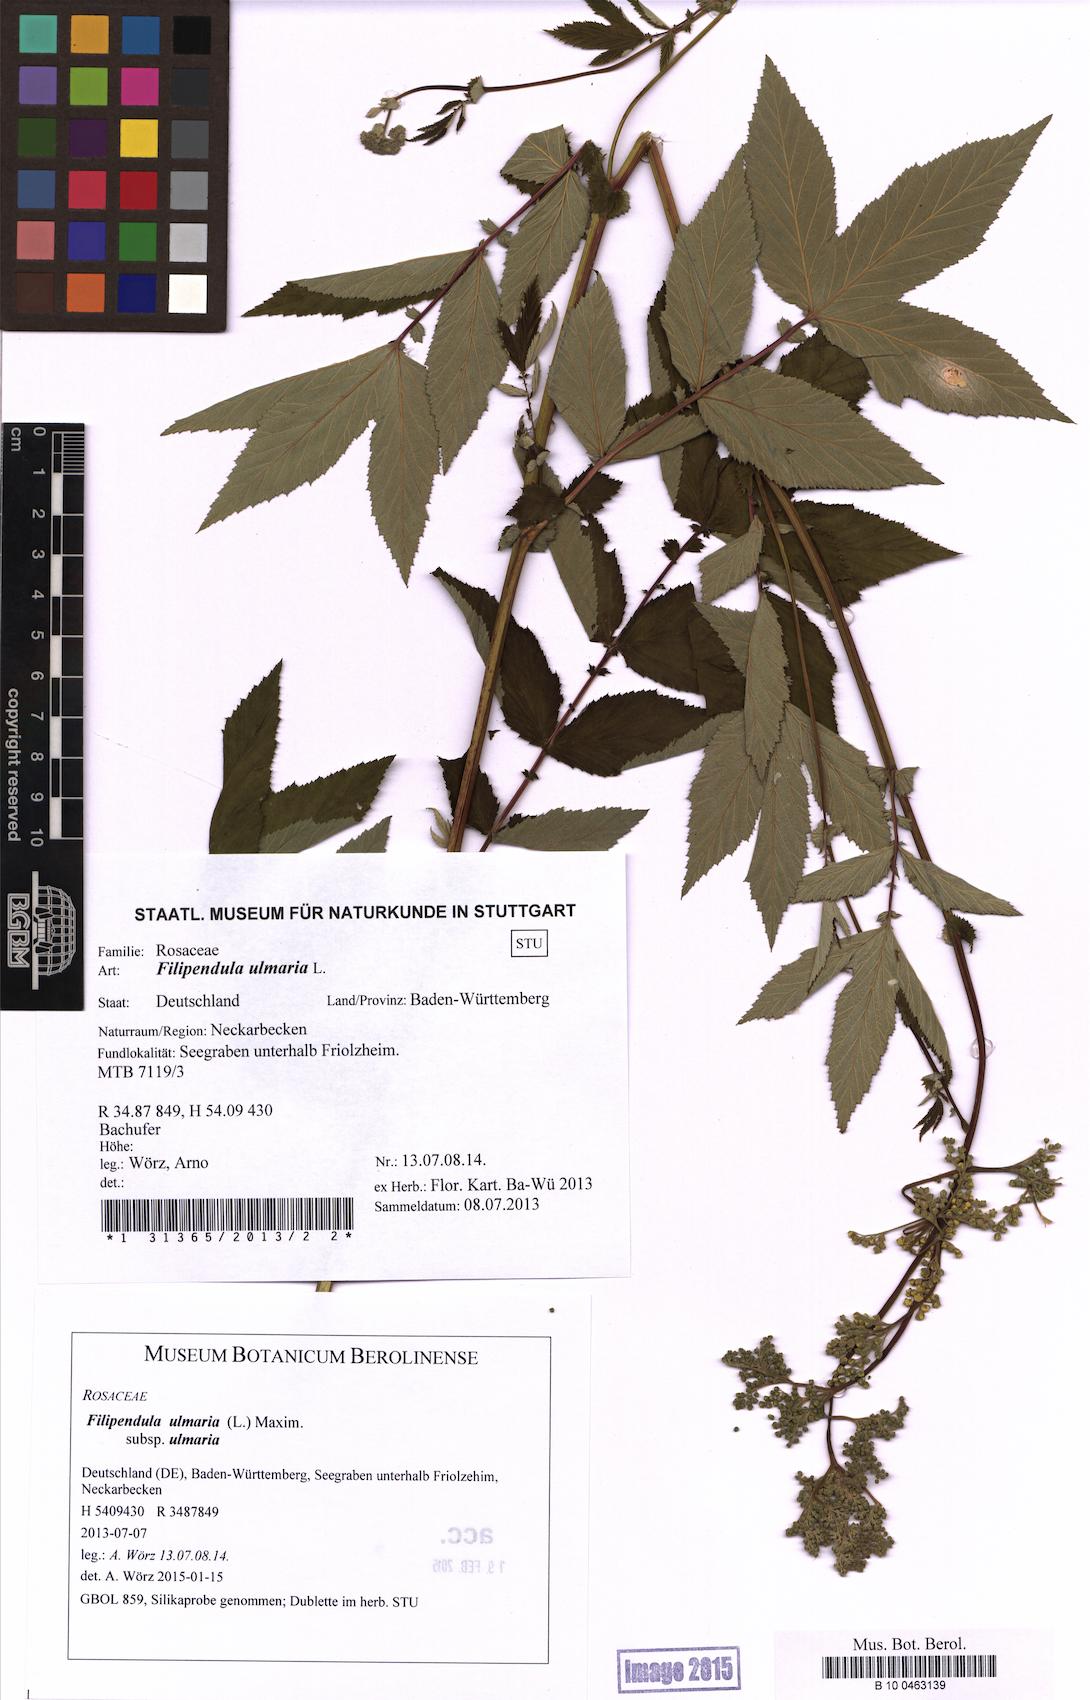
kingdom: Plantae
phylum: Tracheophyta
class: Magnoliopsida
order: Rosales
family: Rosaceae
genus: Filipendula
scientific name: Filipendula ulmaria
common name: Meadowsweet
